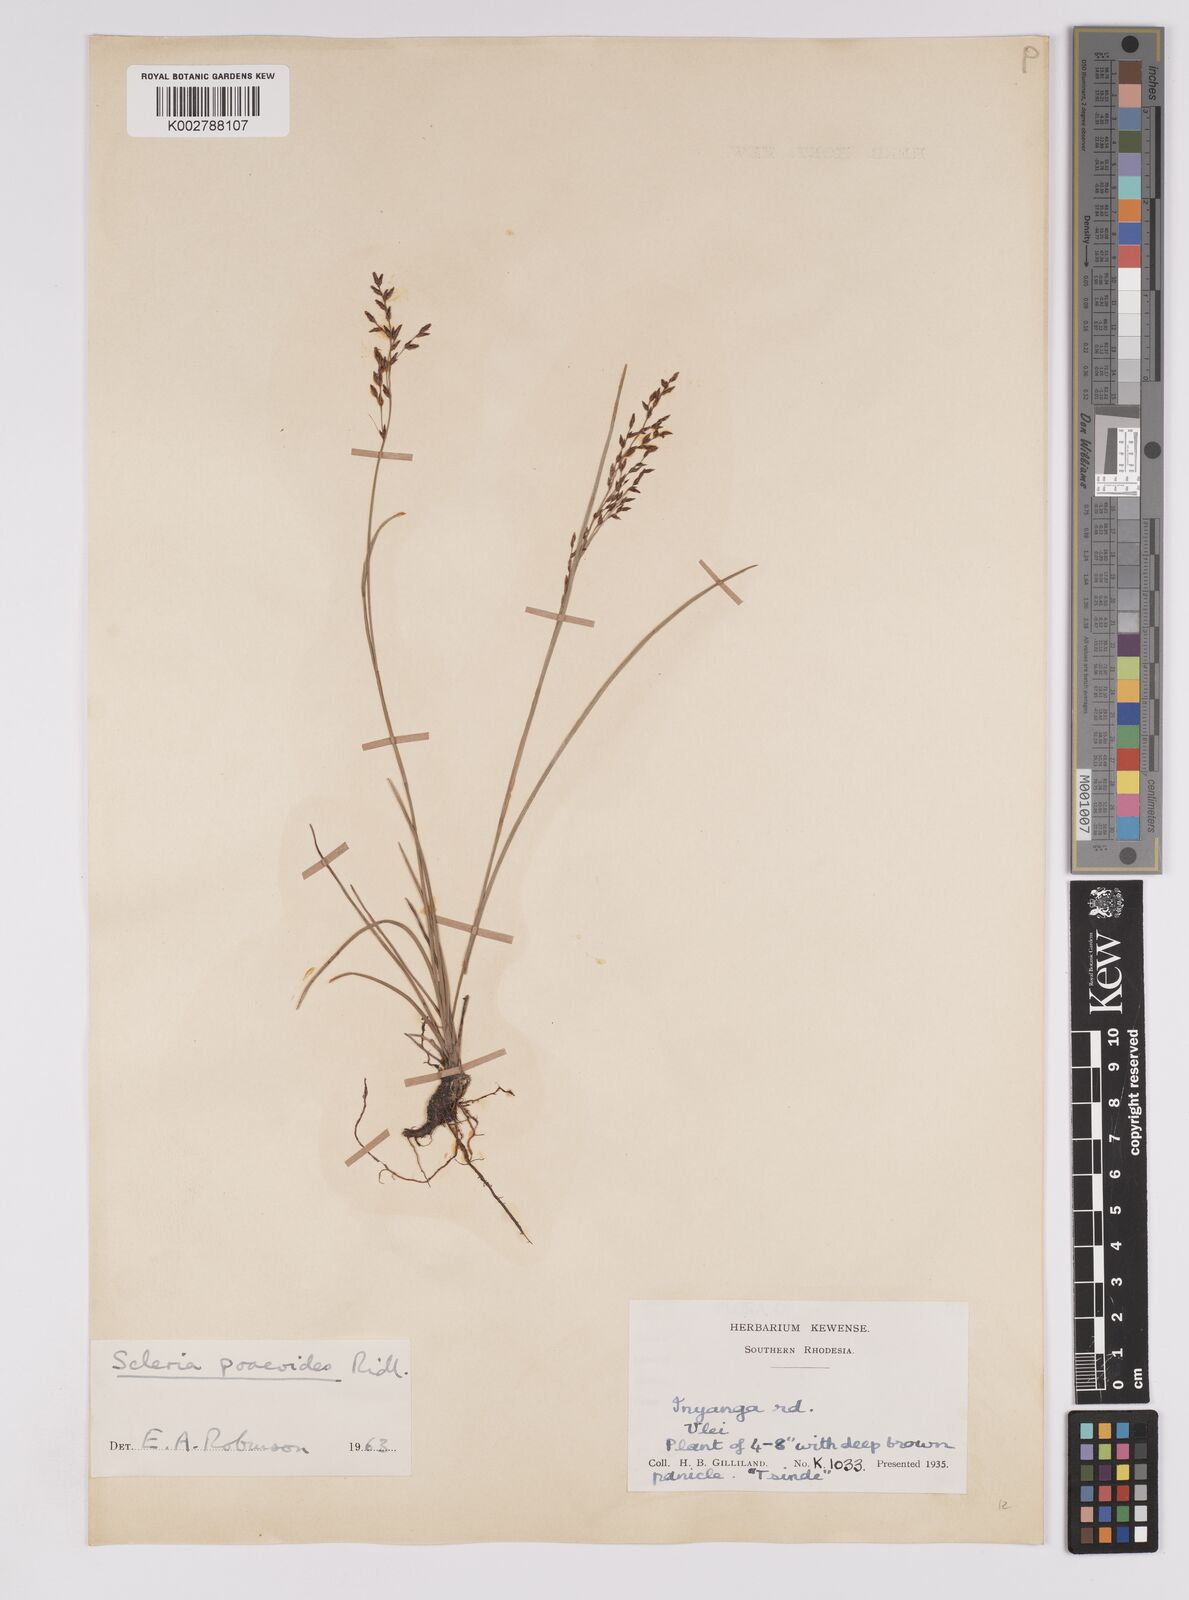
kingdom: Plantae
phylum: Tracheophyta
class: Liliopsida
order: Poales
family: Cyperaceae
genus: Scleria
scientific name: Scleria pooides
